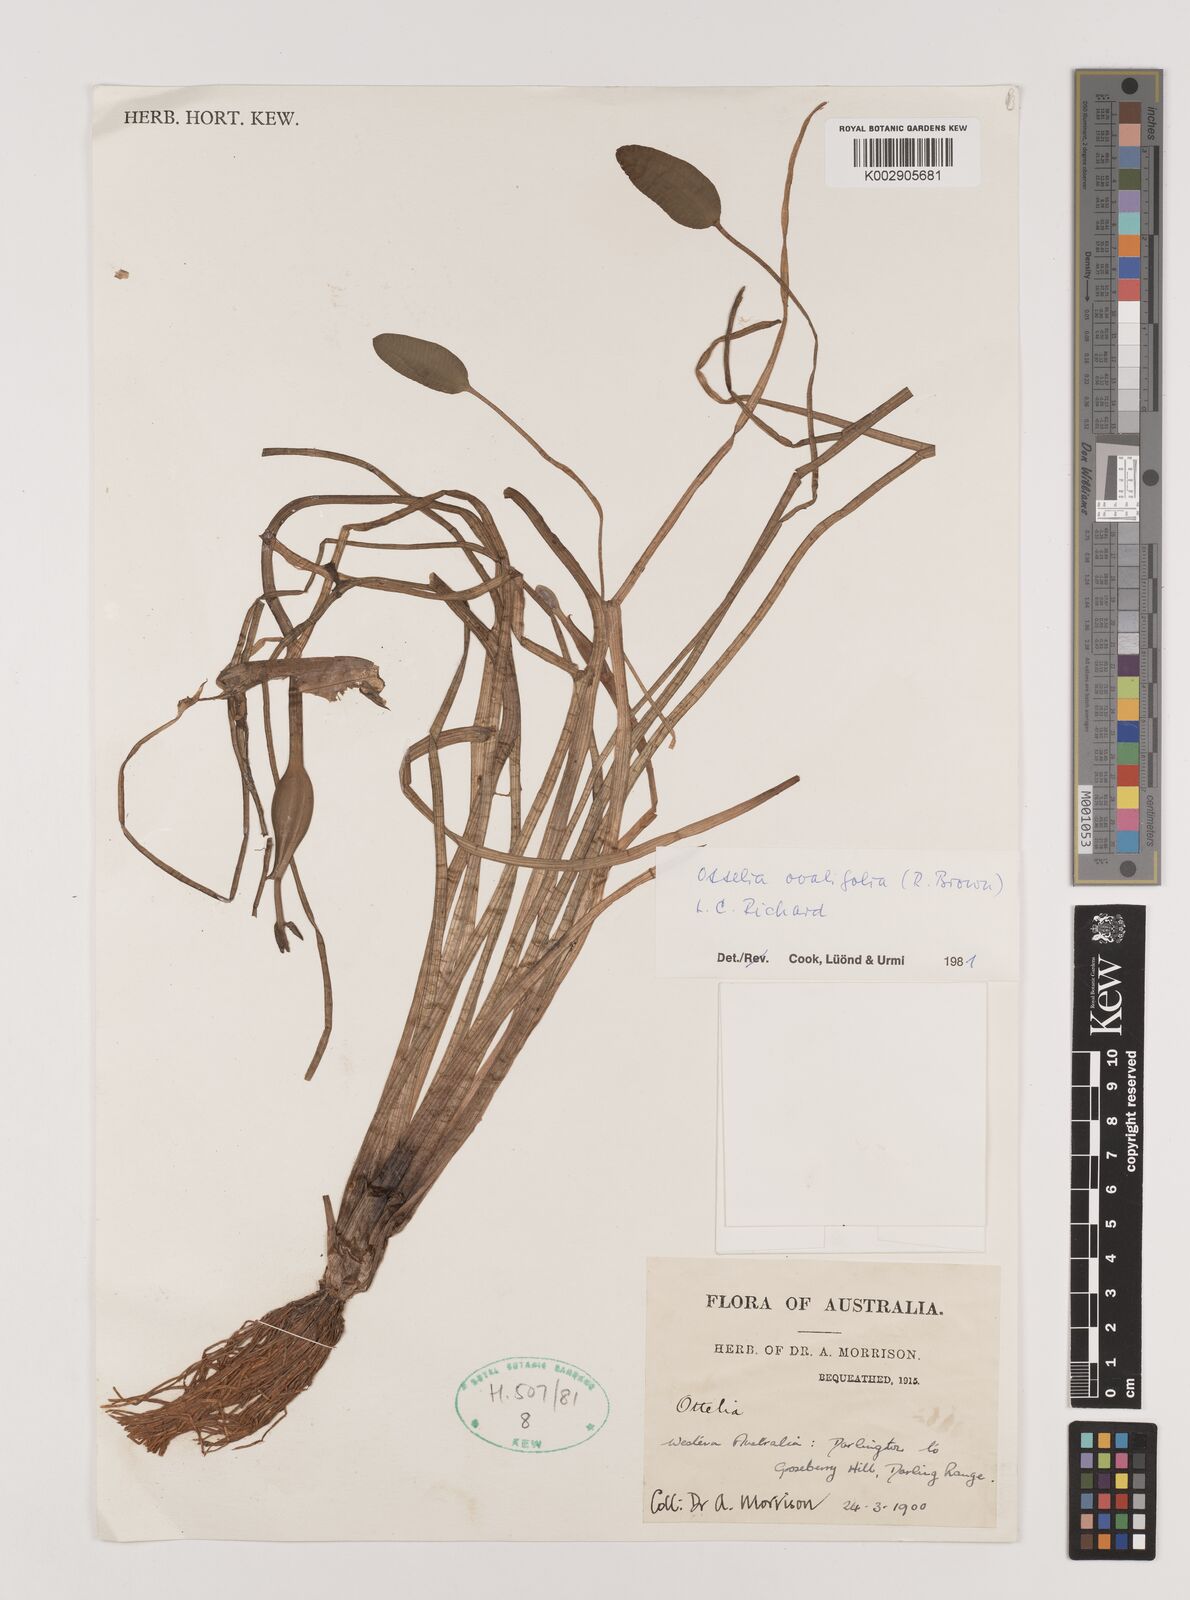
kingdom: Plantae
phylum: Tracheophyta
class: Liliopsida
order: Alismatales
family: Hydrocharitaceae
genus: Ottelia
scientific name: Ottelia ovalifolia
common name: Swamp-lily
